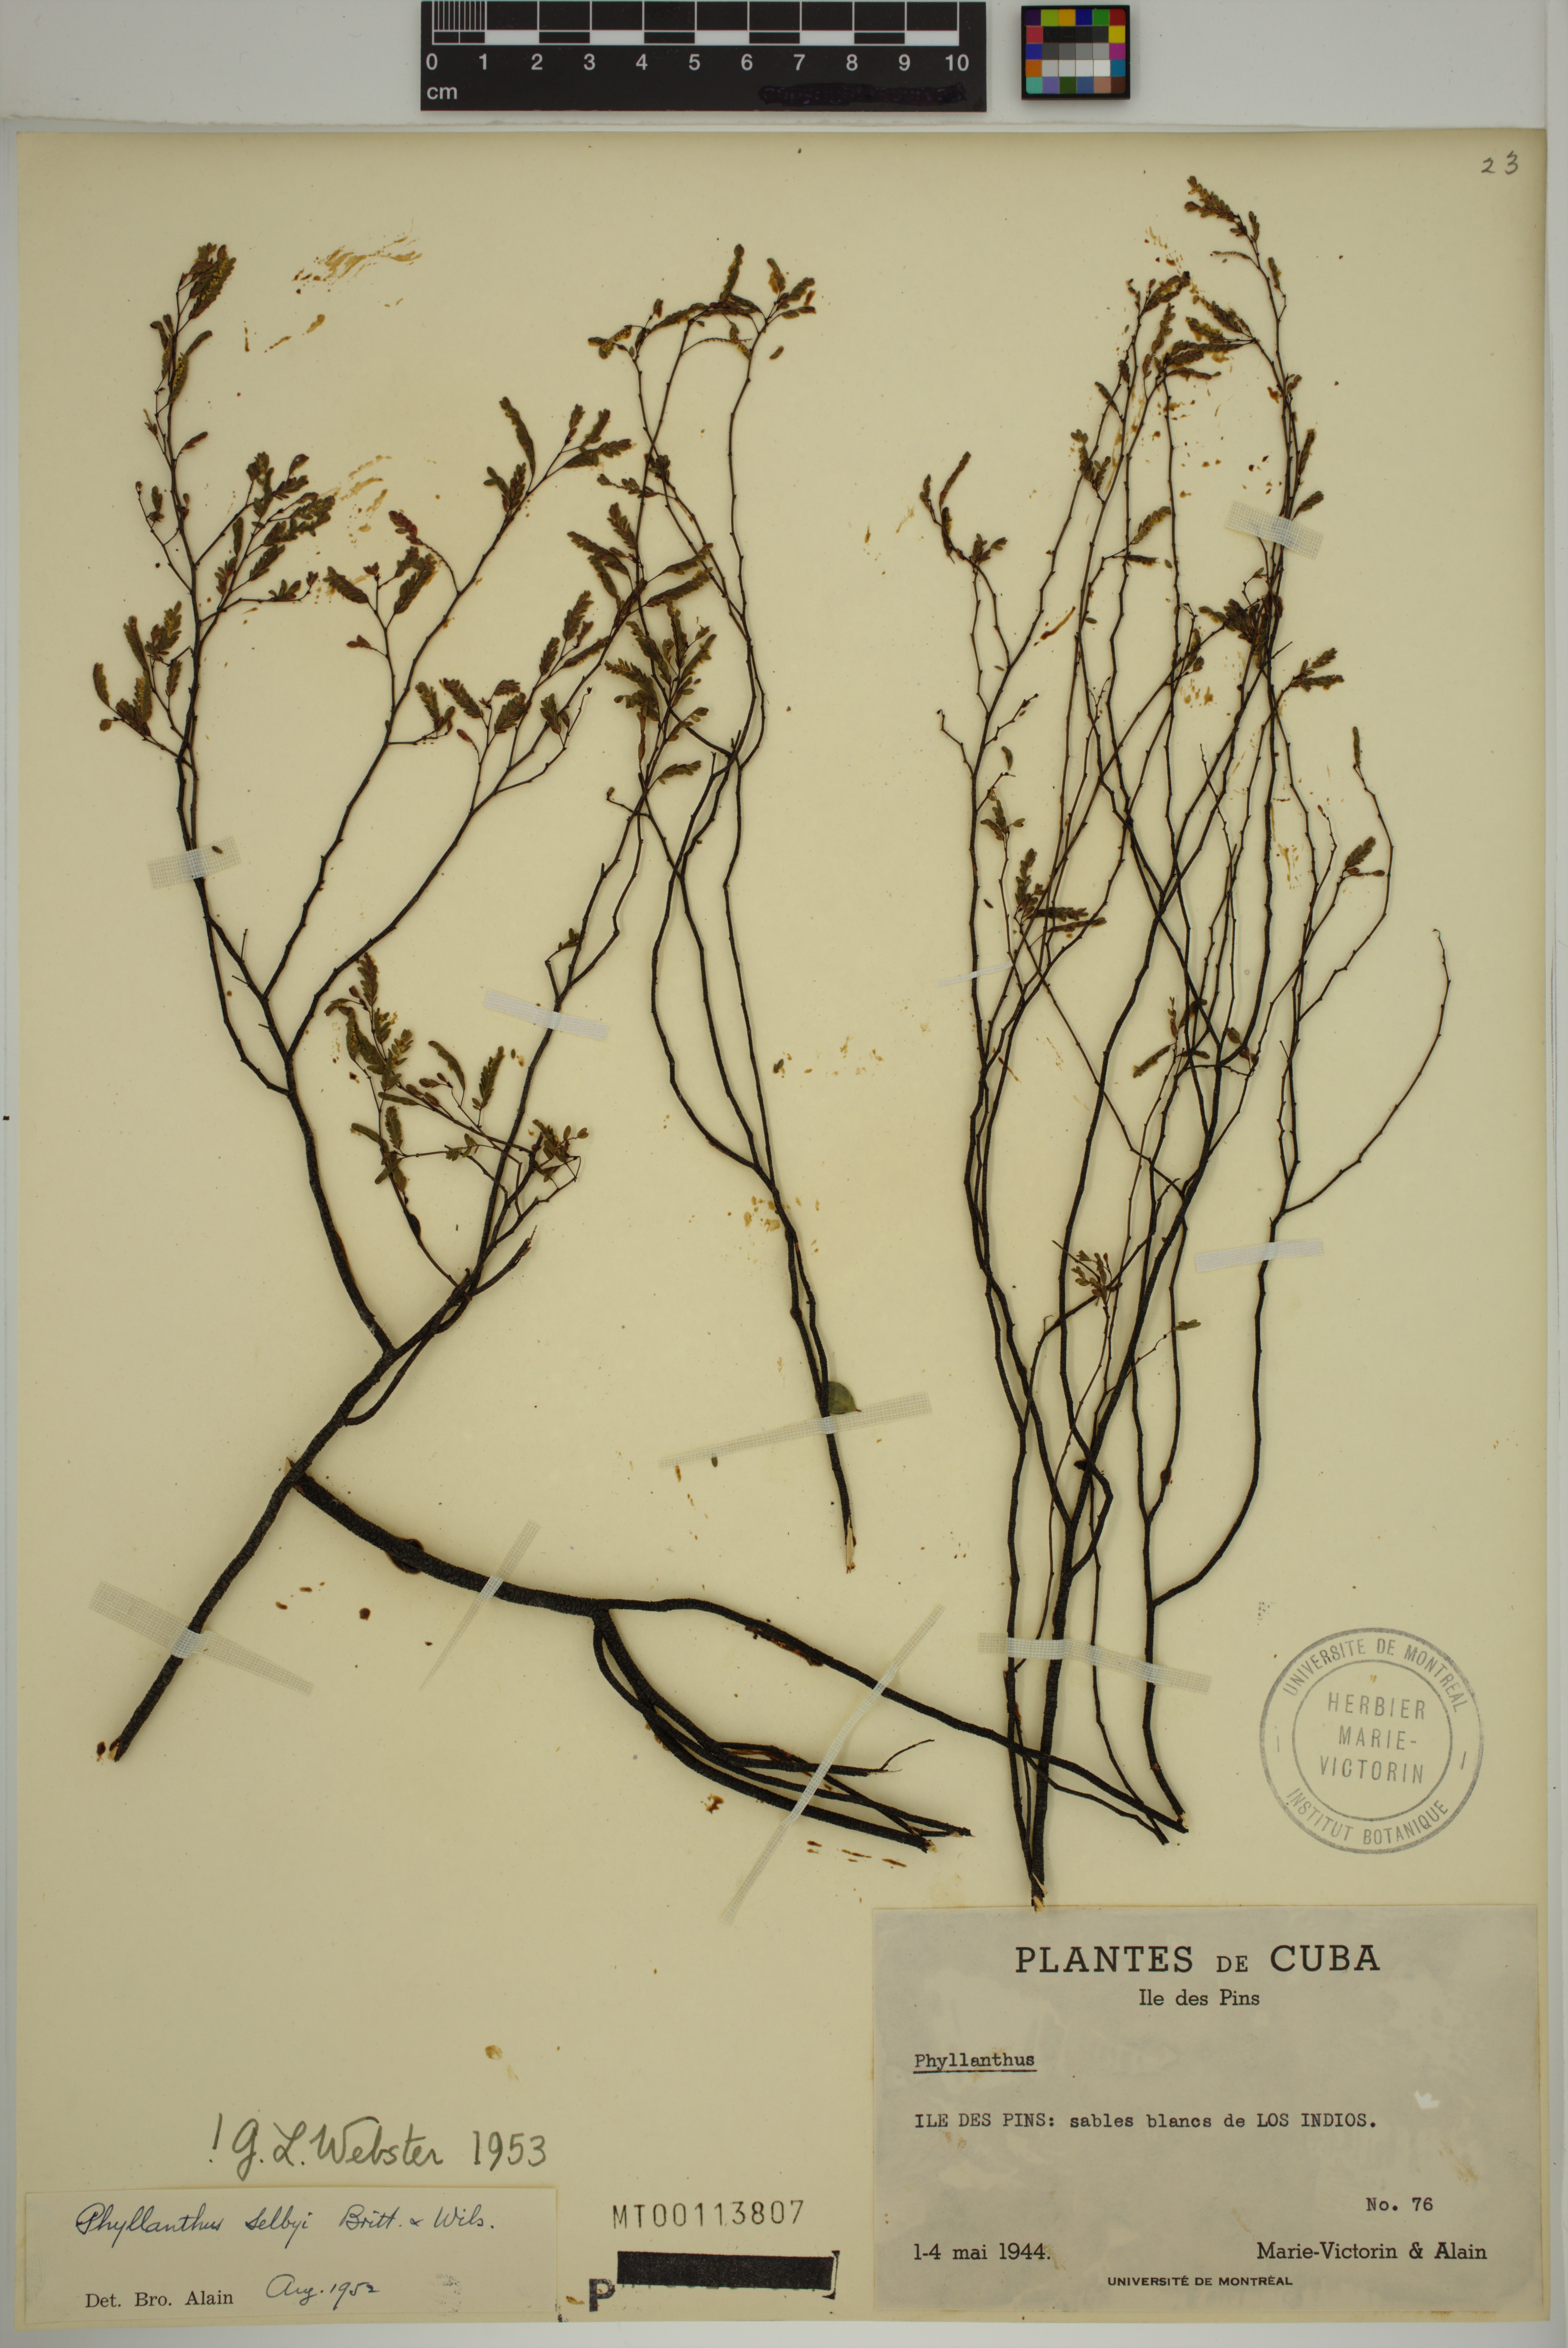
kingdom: Plantae
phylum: Tracheophyta
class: Magnoliopsida
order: Malpighiales
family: Phyllanthaceae
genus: Phyllanthus
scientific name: Phyllanthus selbyi
